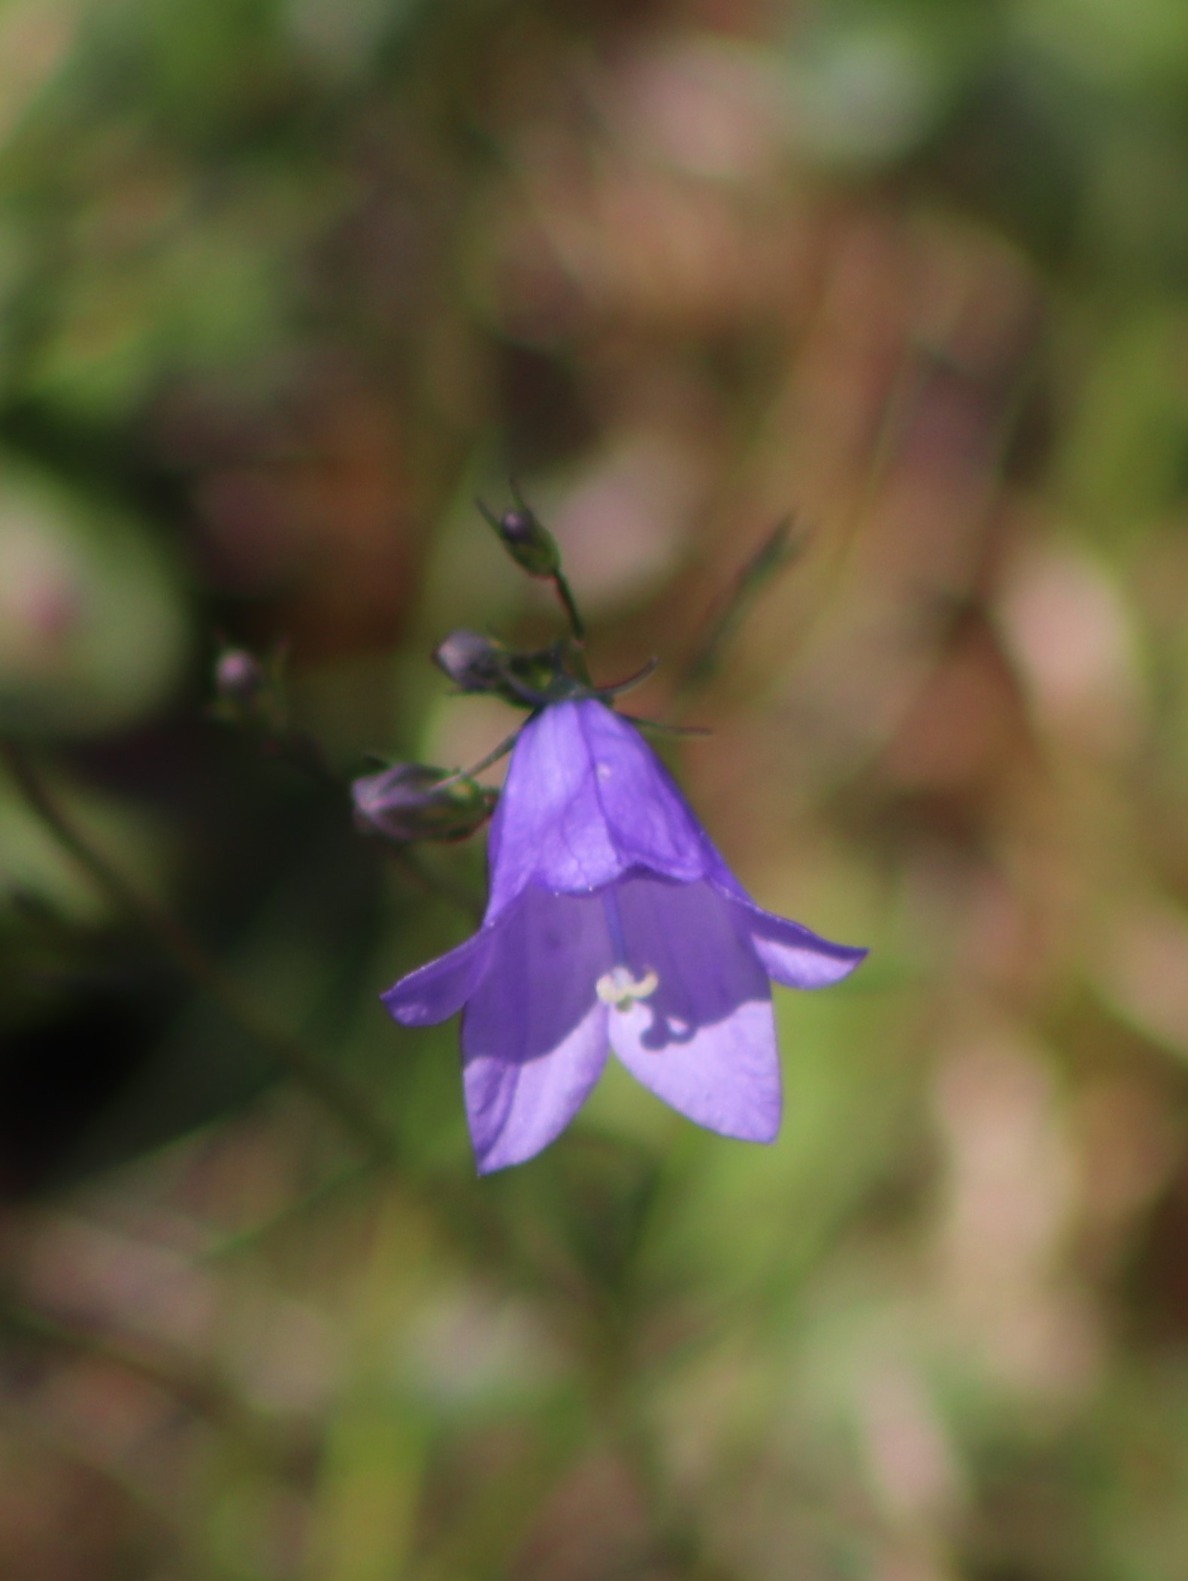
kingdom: Plantae
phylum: Tracheophyta
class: Magnoliopsida
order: Asterales
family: Campanulaceae
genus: Campanula
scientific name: Campanula rotundifolia
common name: Liden klokke
